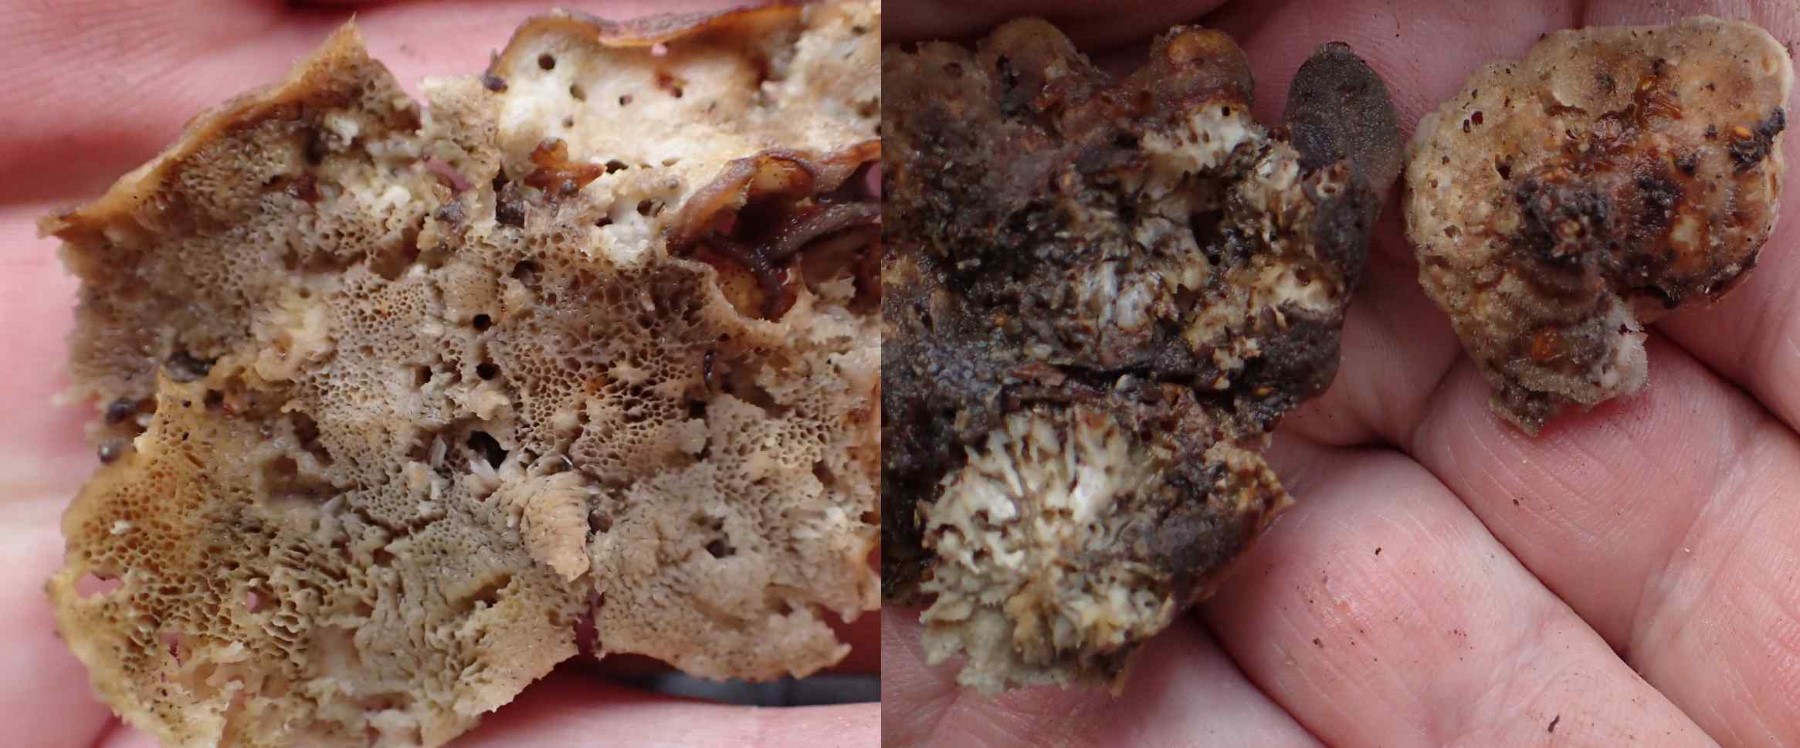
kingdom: Fungi
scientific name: Fungi
